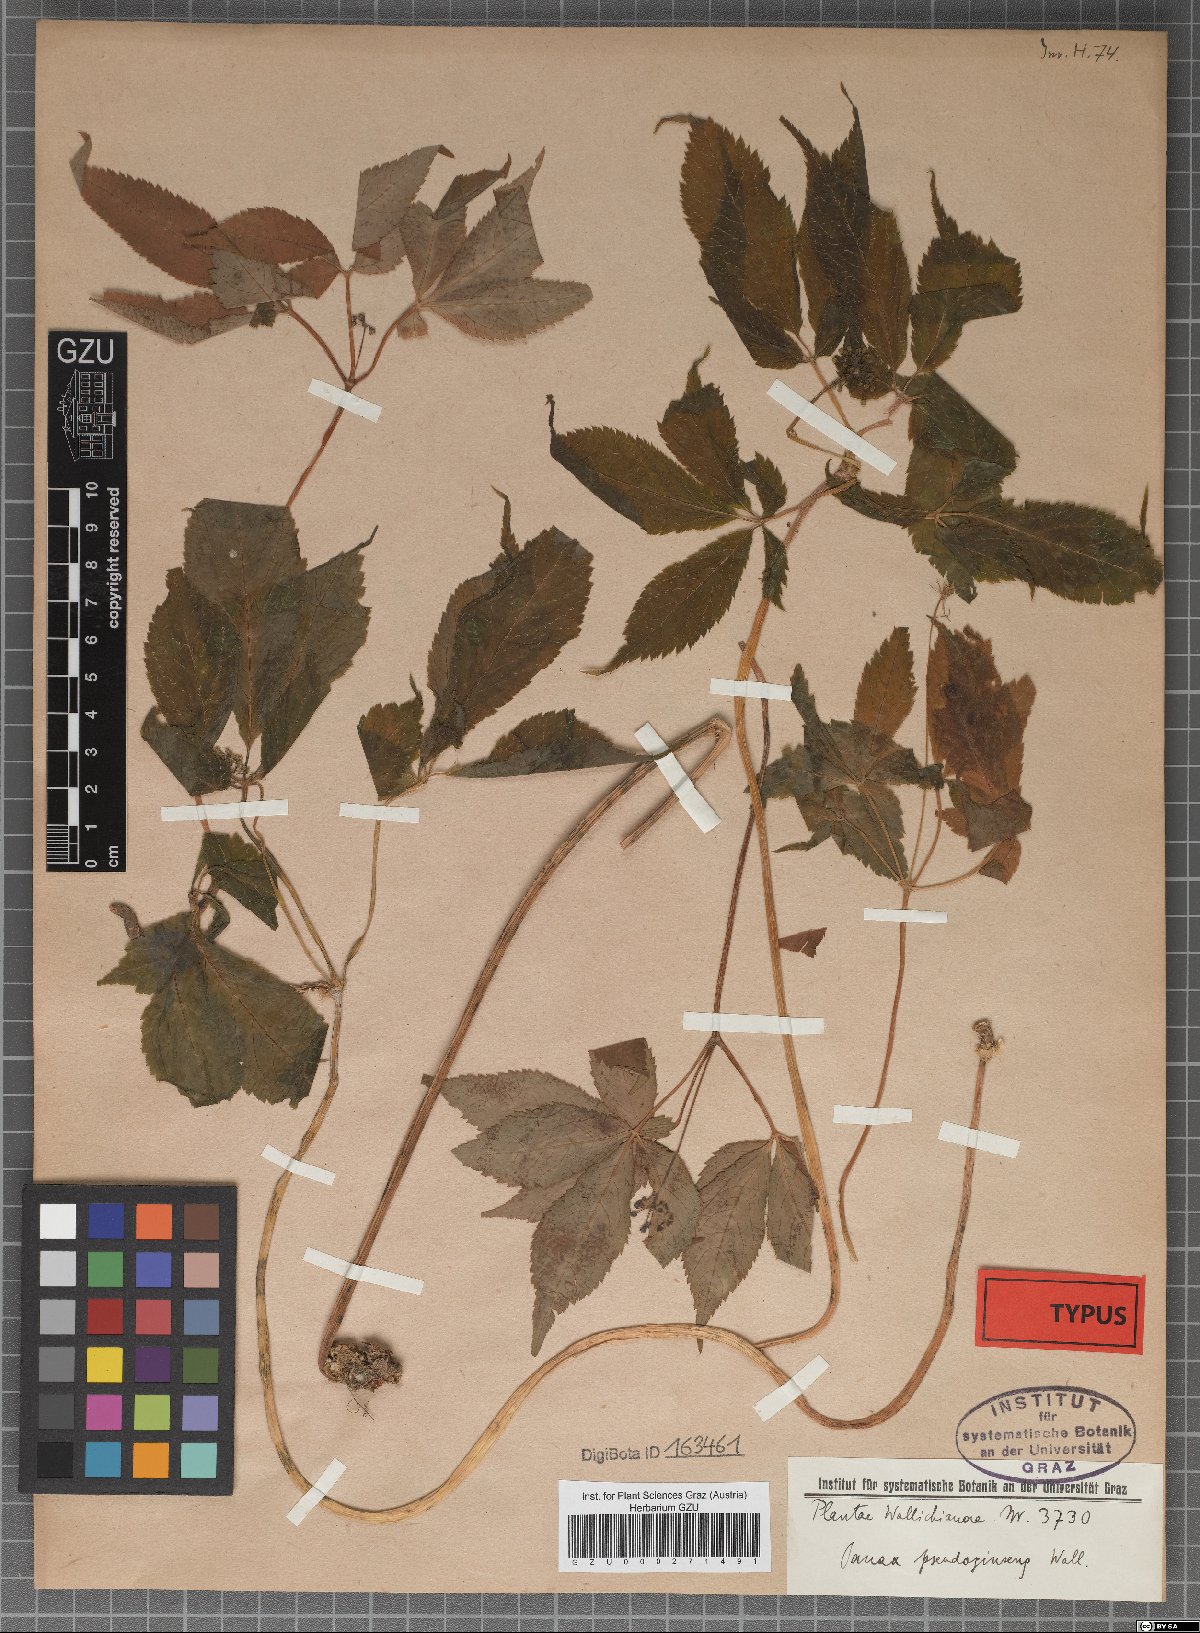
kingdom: Plantae
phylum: Tracheophyta
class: Magnoliopsida
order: Apiales
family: Araliaceae
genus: Panax
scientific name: Panax pseudoginseng
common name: Pseudoginseng
